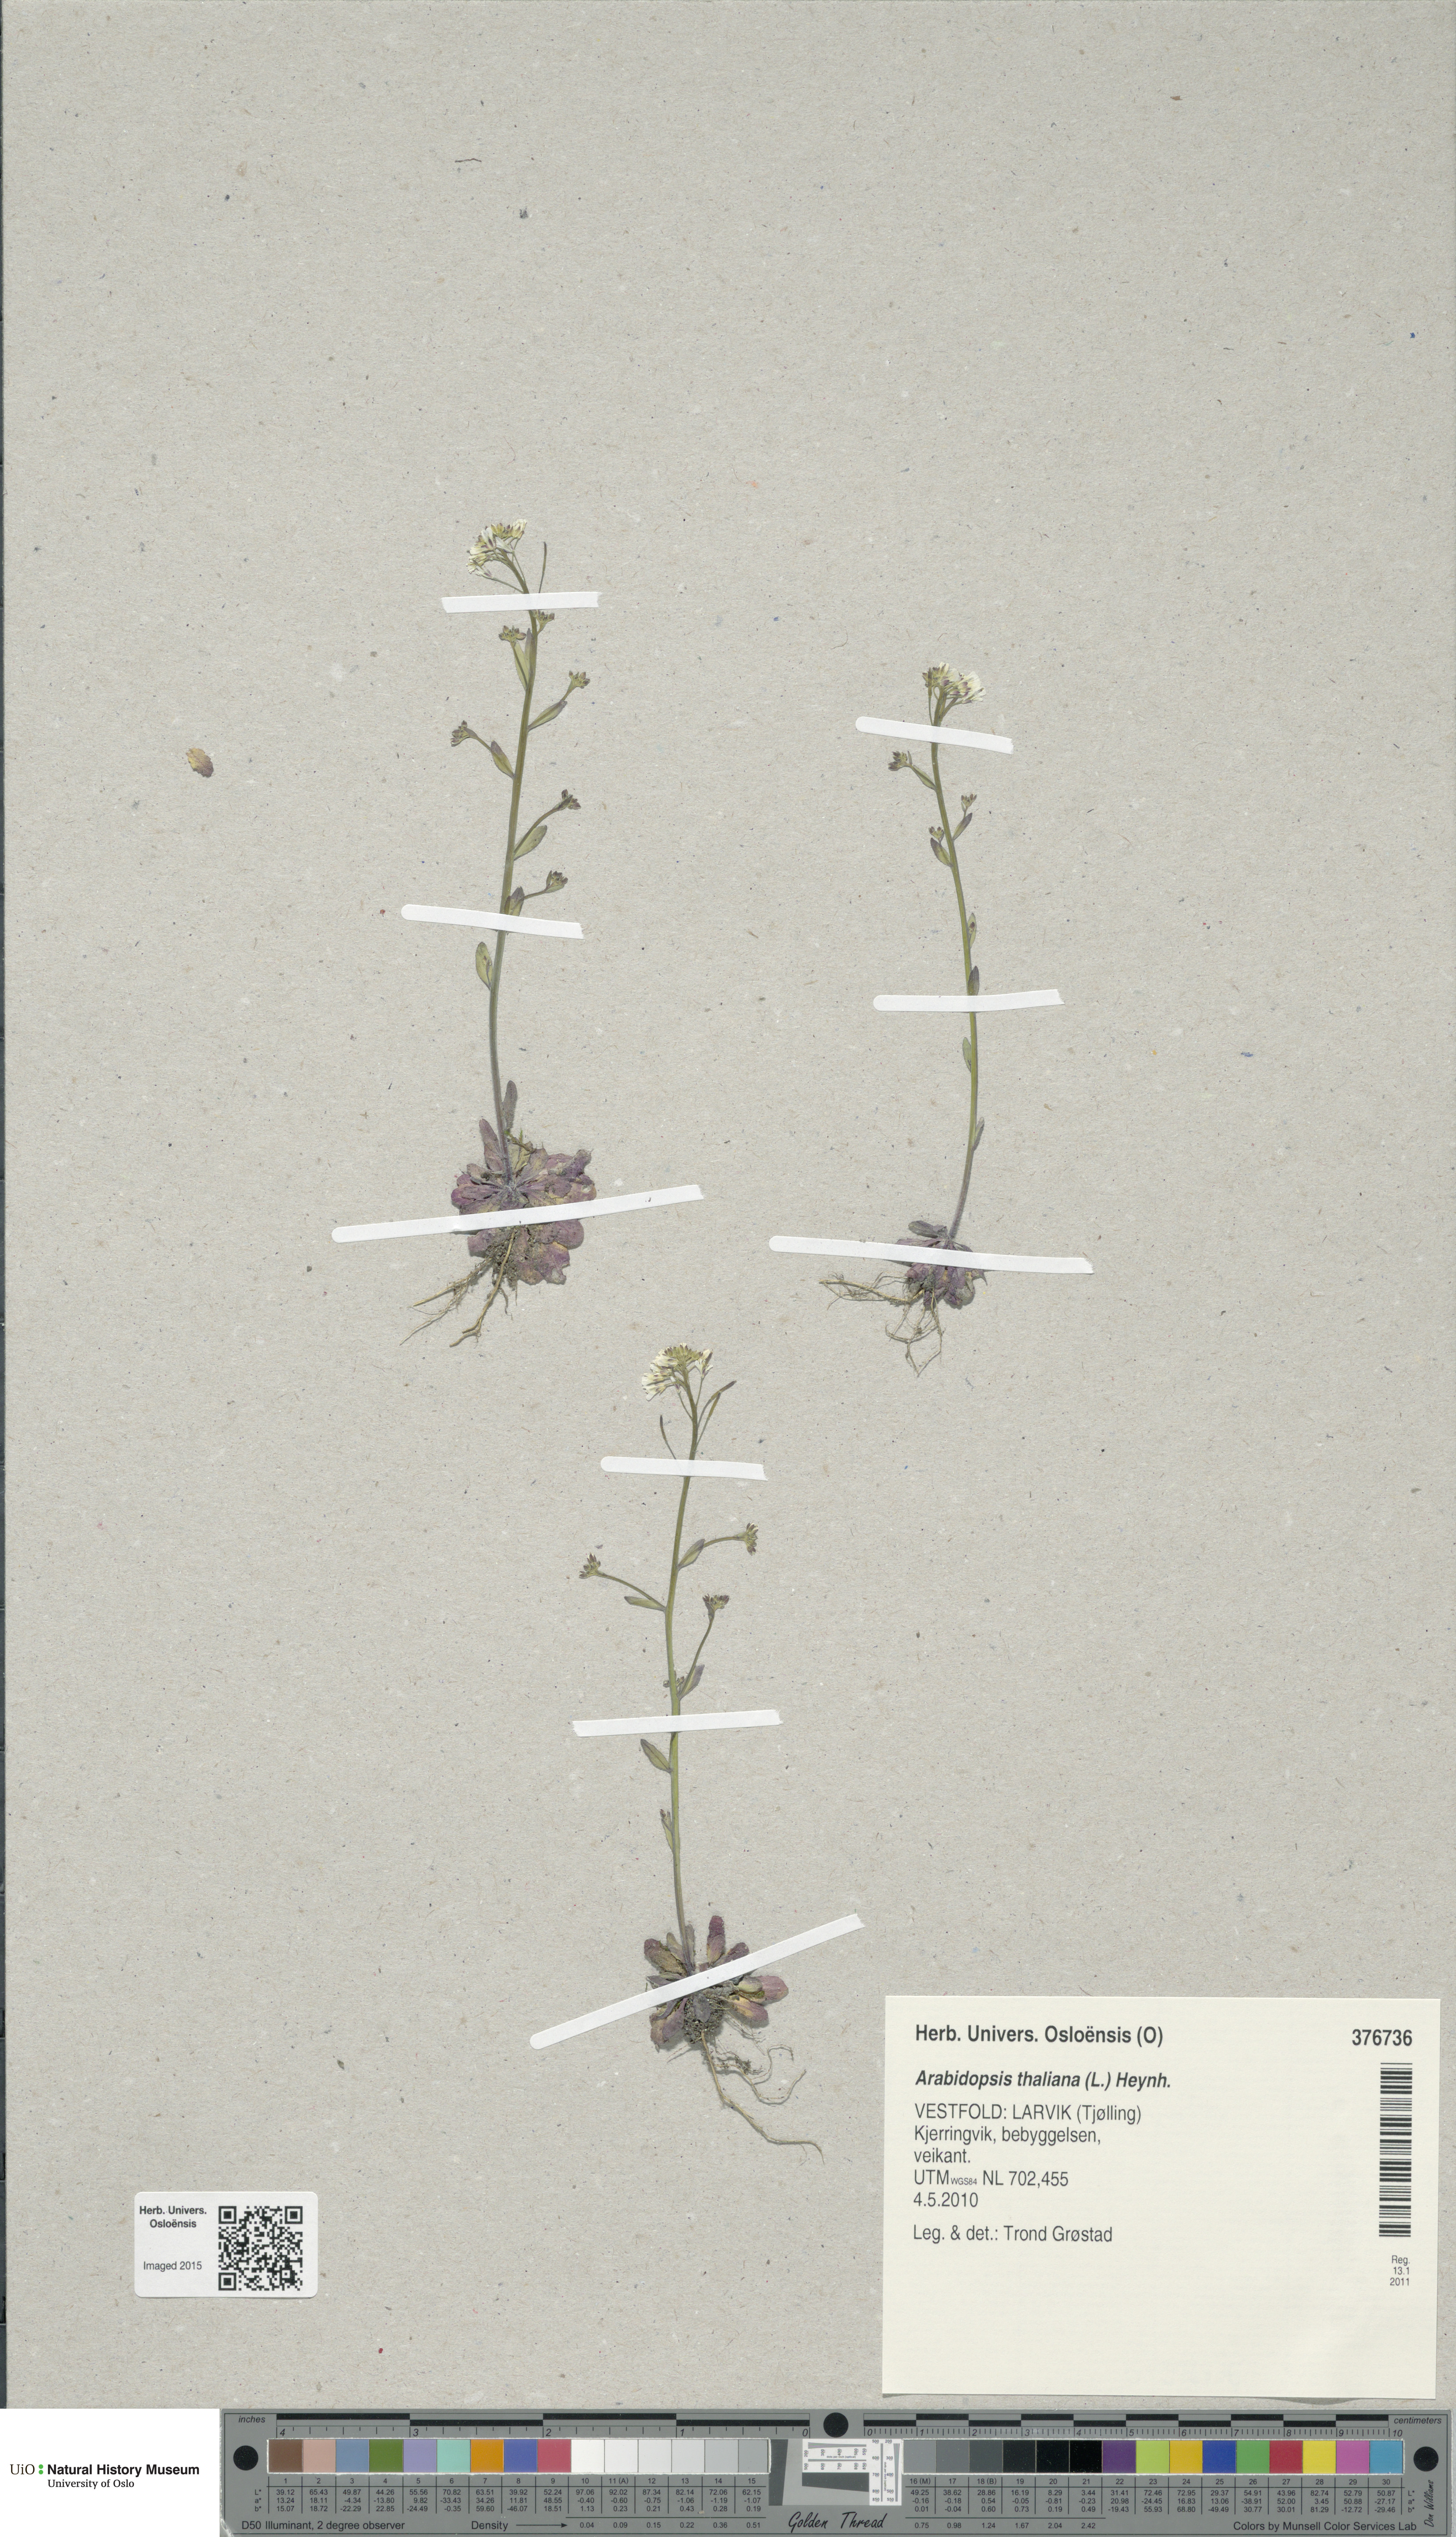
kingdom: Plantae
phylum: Tracheophyta
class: Magnoliopsida
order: Brassicales
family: Brassicaceae
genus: Arabidopsis
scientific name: Arabidopsis thaliana
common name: Thale cress
